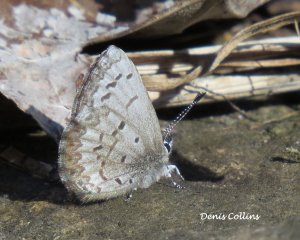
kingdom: Animalia
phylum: Arthropoda
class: Insecta
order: Lepidoptera
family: Lycaenidae
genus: Celastrina
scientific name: Celastrina lucia
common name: Northern Spring Azure
